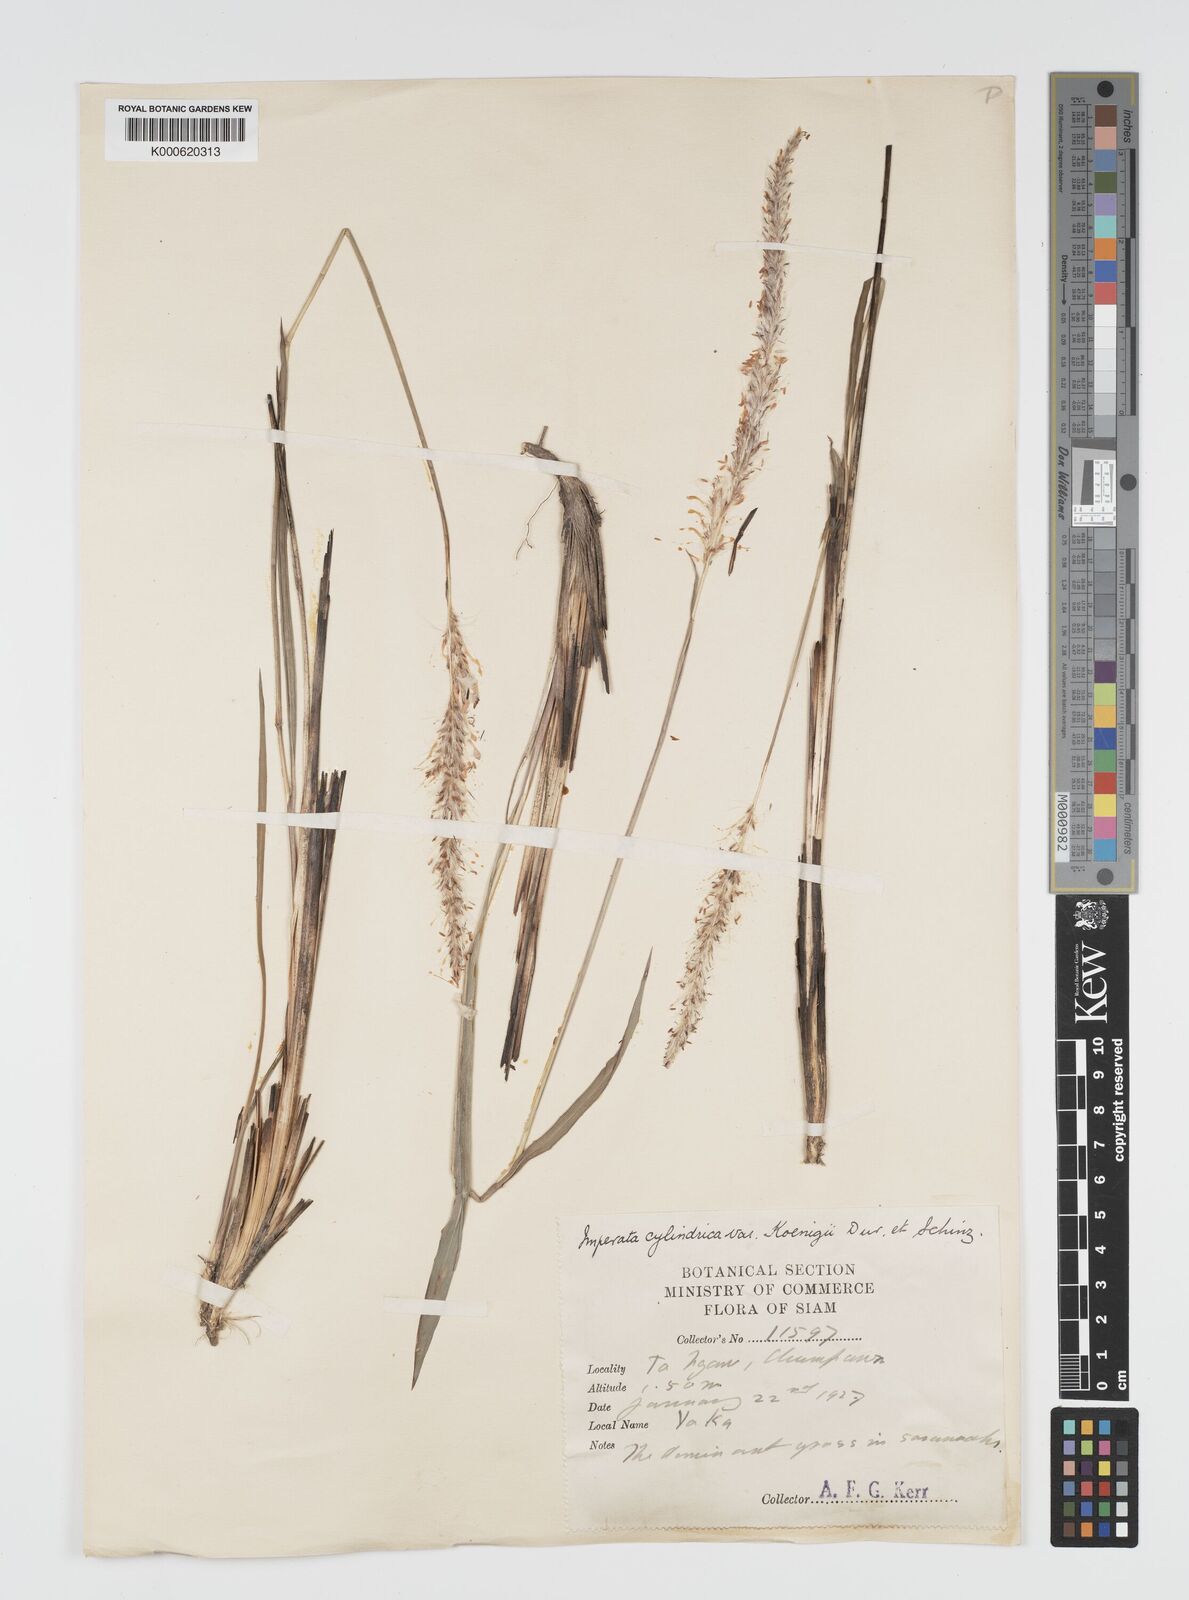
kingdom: Plantae
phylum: Tracheophyta
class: Liliopsida
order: Poales
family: Poaceae
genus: Imperata
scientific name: Imperata cylindrica
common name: Cogongrass
